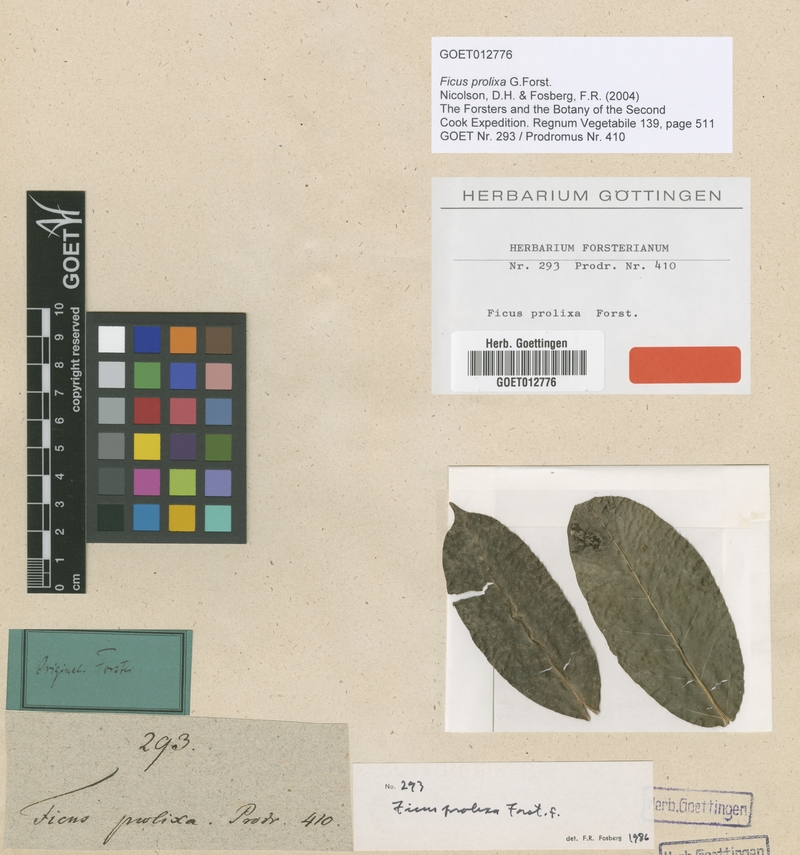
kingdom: Plantae
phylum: Tracheophyta
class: Magnoliopsida
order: Rosales
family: Moraceae
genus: Ficus
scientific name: Ficus prolixa
